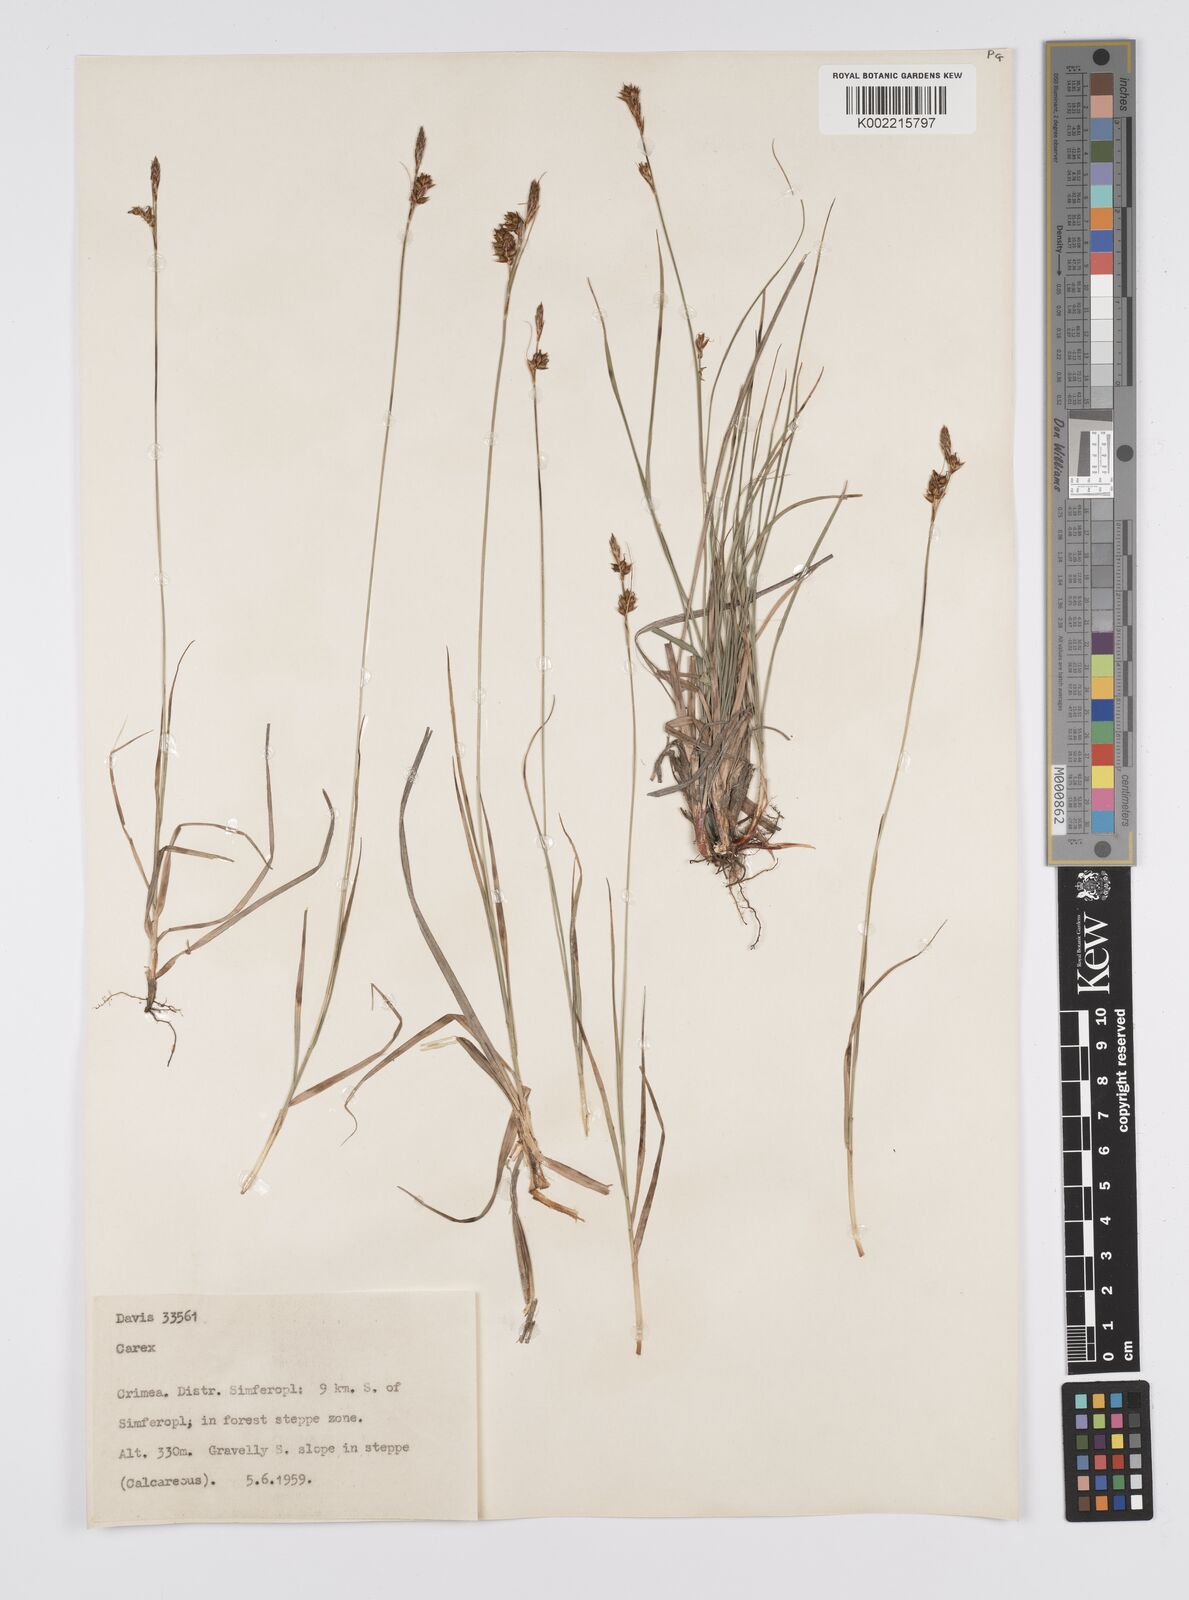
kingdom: Plantae
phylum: Tracheophyta
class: Liliopsida
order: Poales
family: Cyperaceae
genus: Carex
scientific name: Carex
